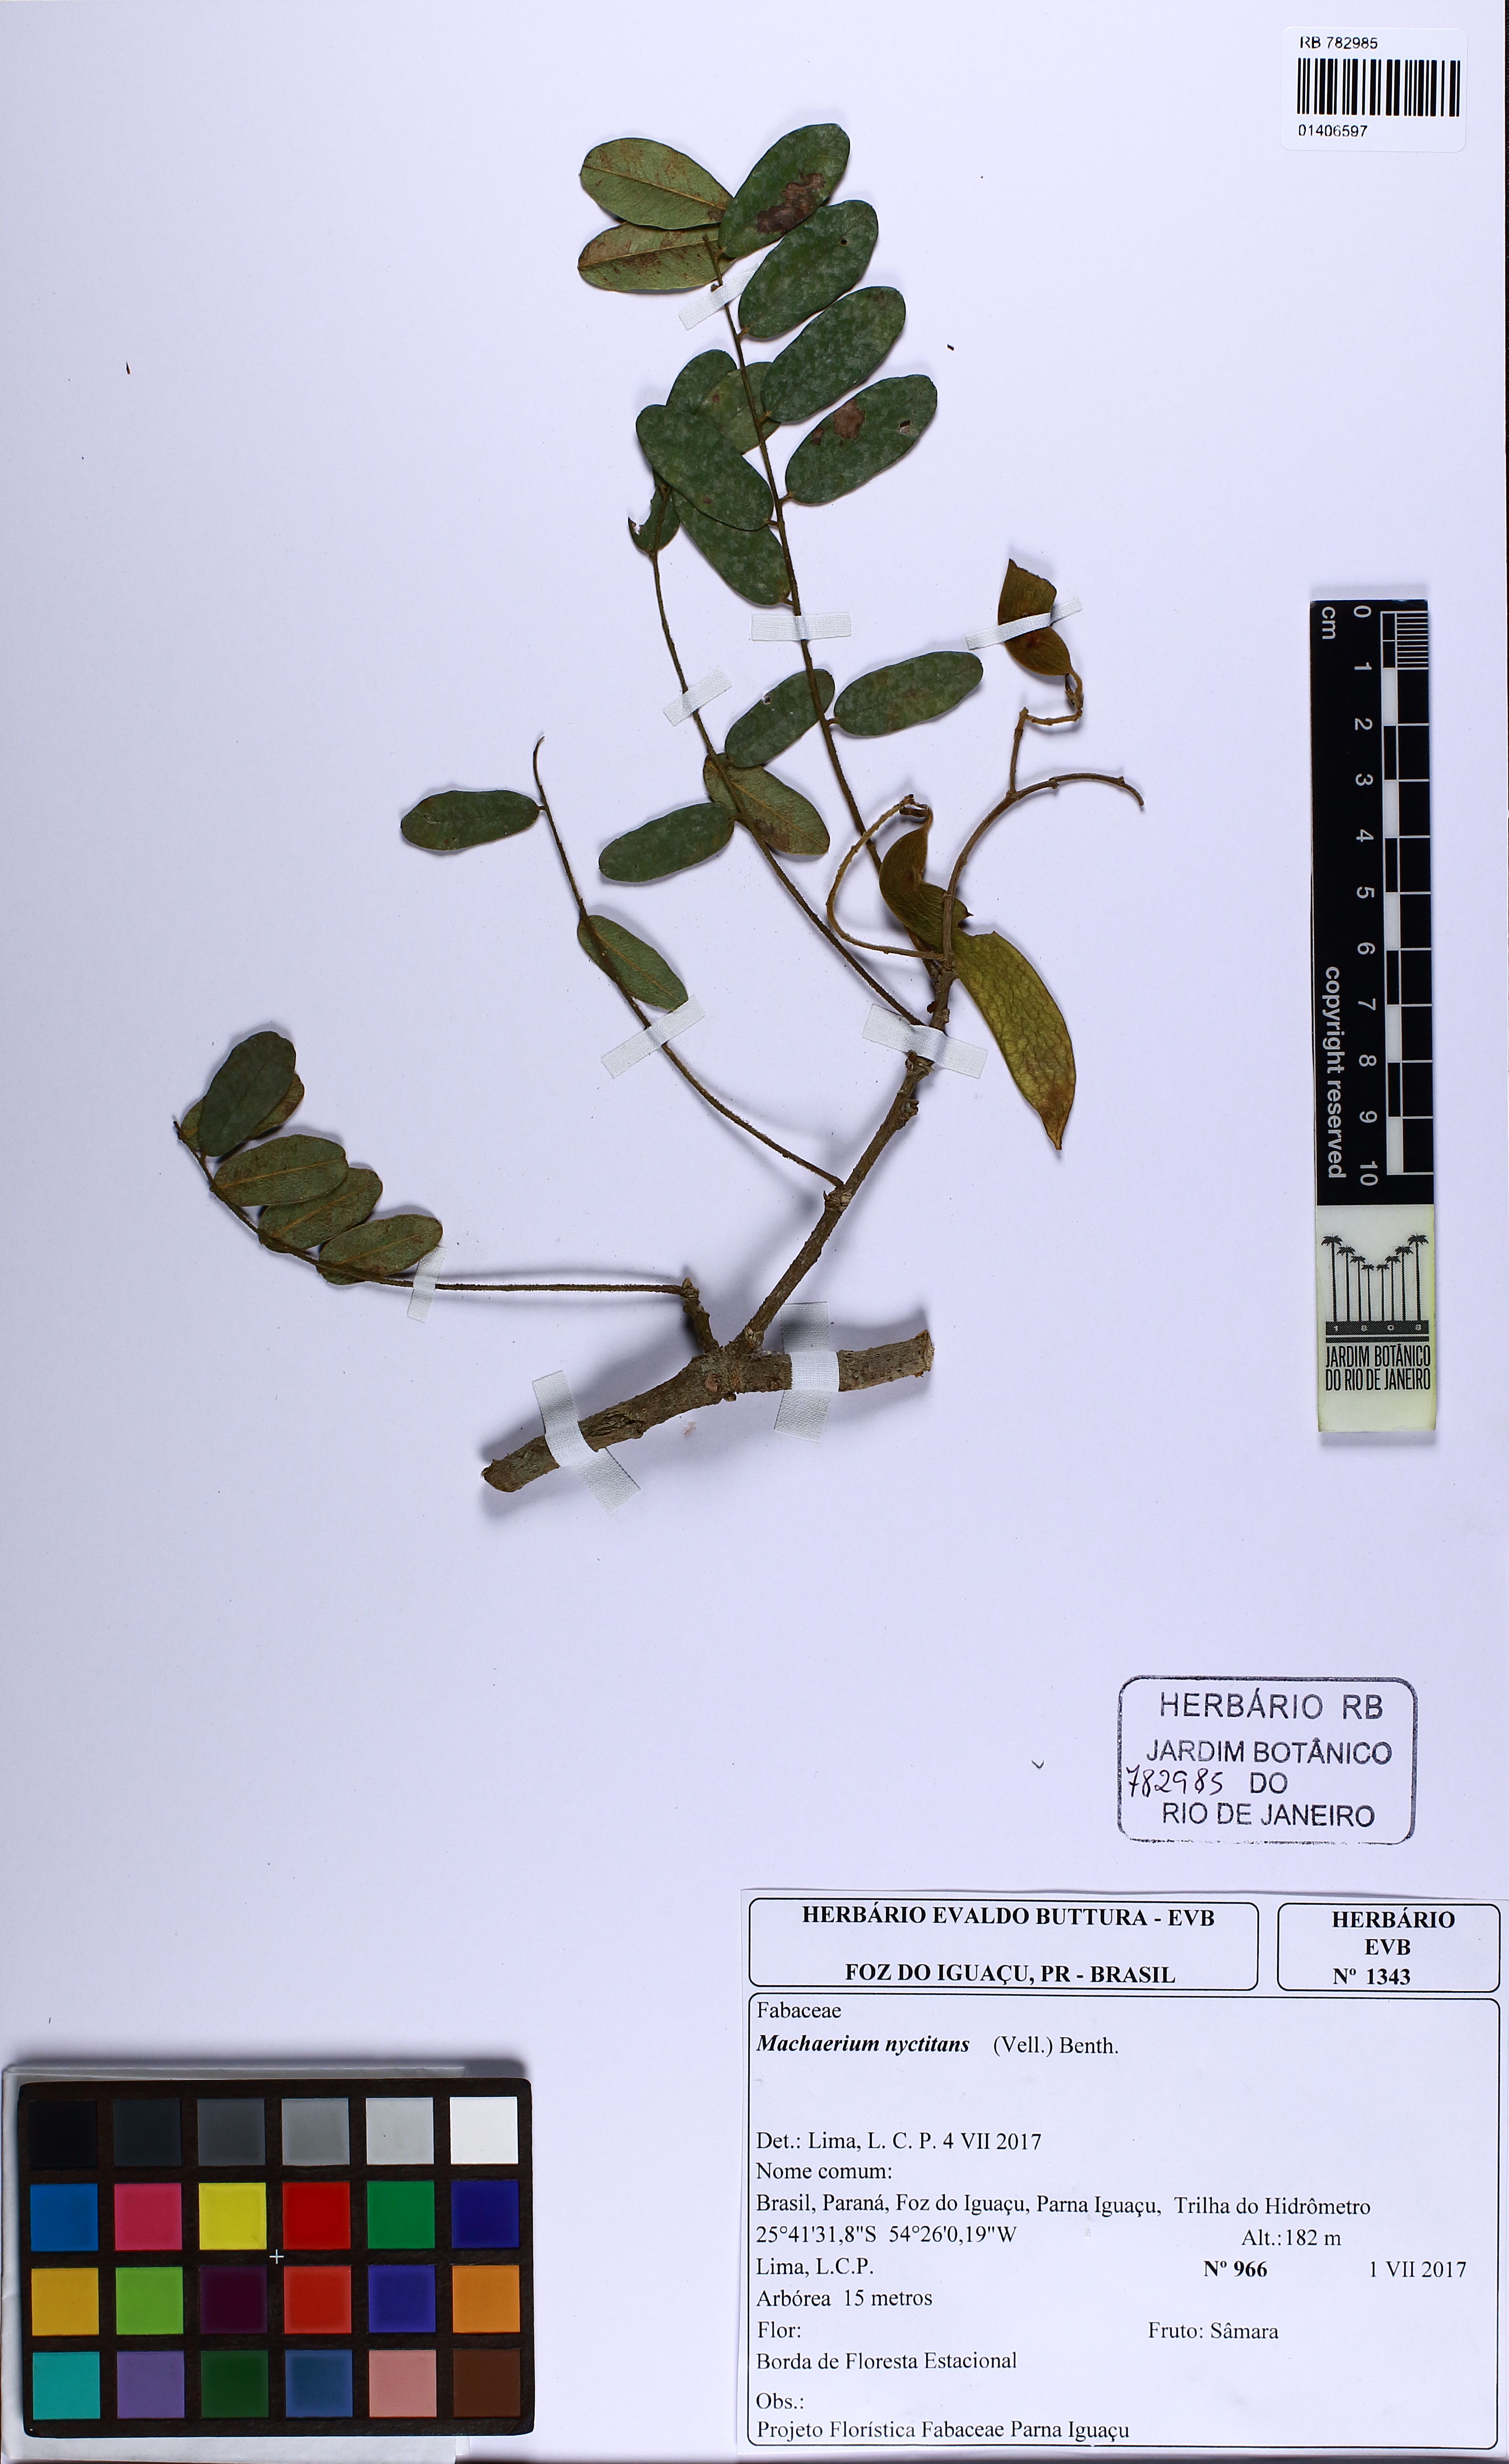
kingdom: Plantae
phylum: Tracheophyta
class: Magnoliopsida
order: Fabales
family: Fabaceae
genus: Machaerium
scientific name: Machaerium nyctitans
